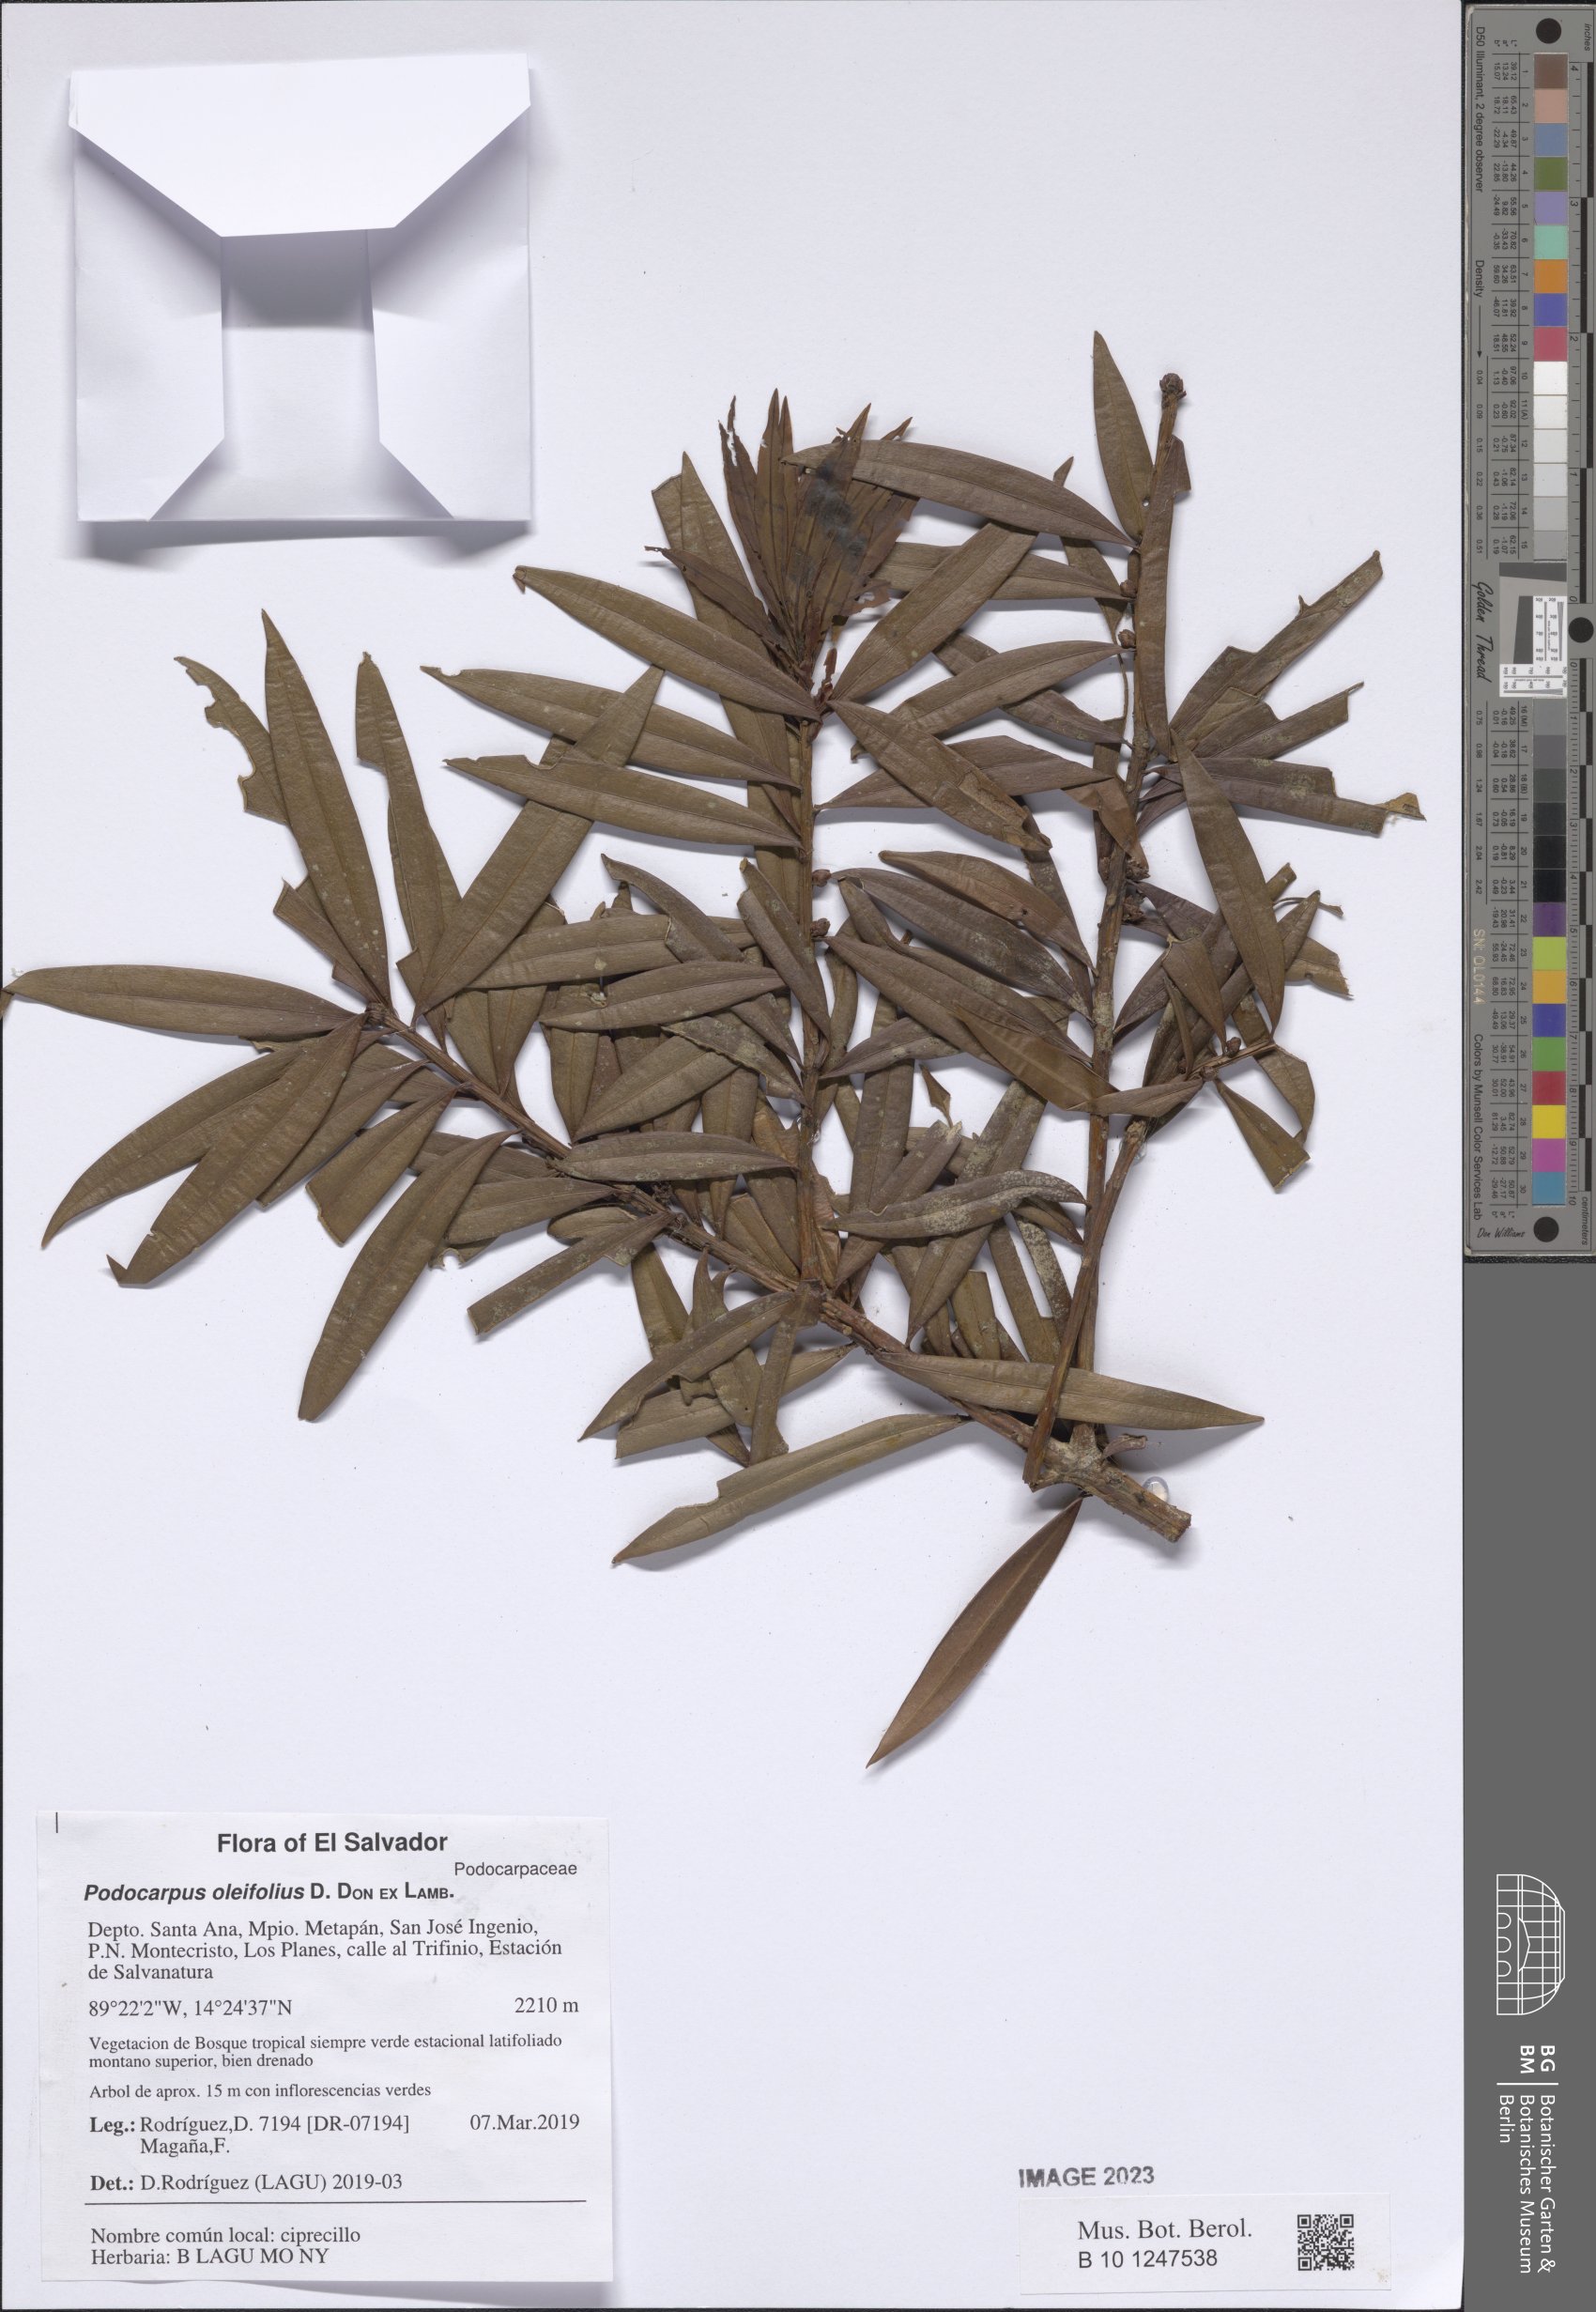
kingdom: Plantae
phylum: Tracheophyta
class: Pinopsida
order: Pinales
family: Podocarpaceae
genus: Podocarpus
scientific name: Podocarpus oleifolius
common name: Olive-leaf podoberry
